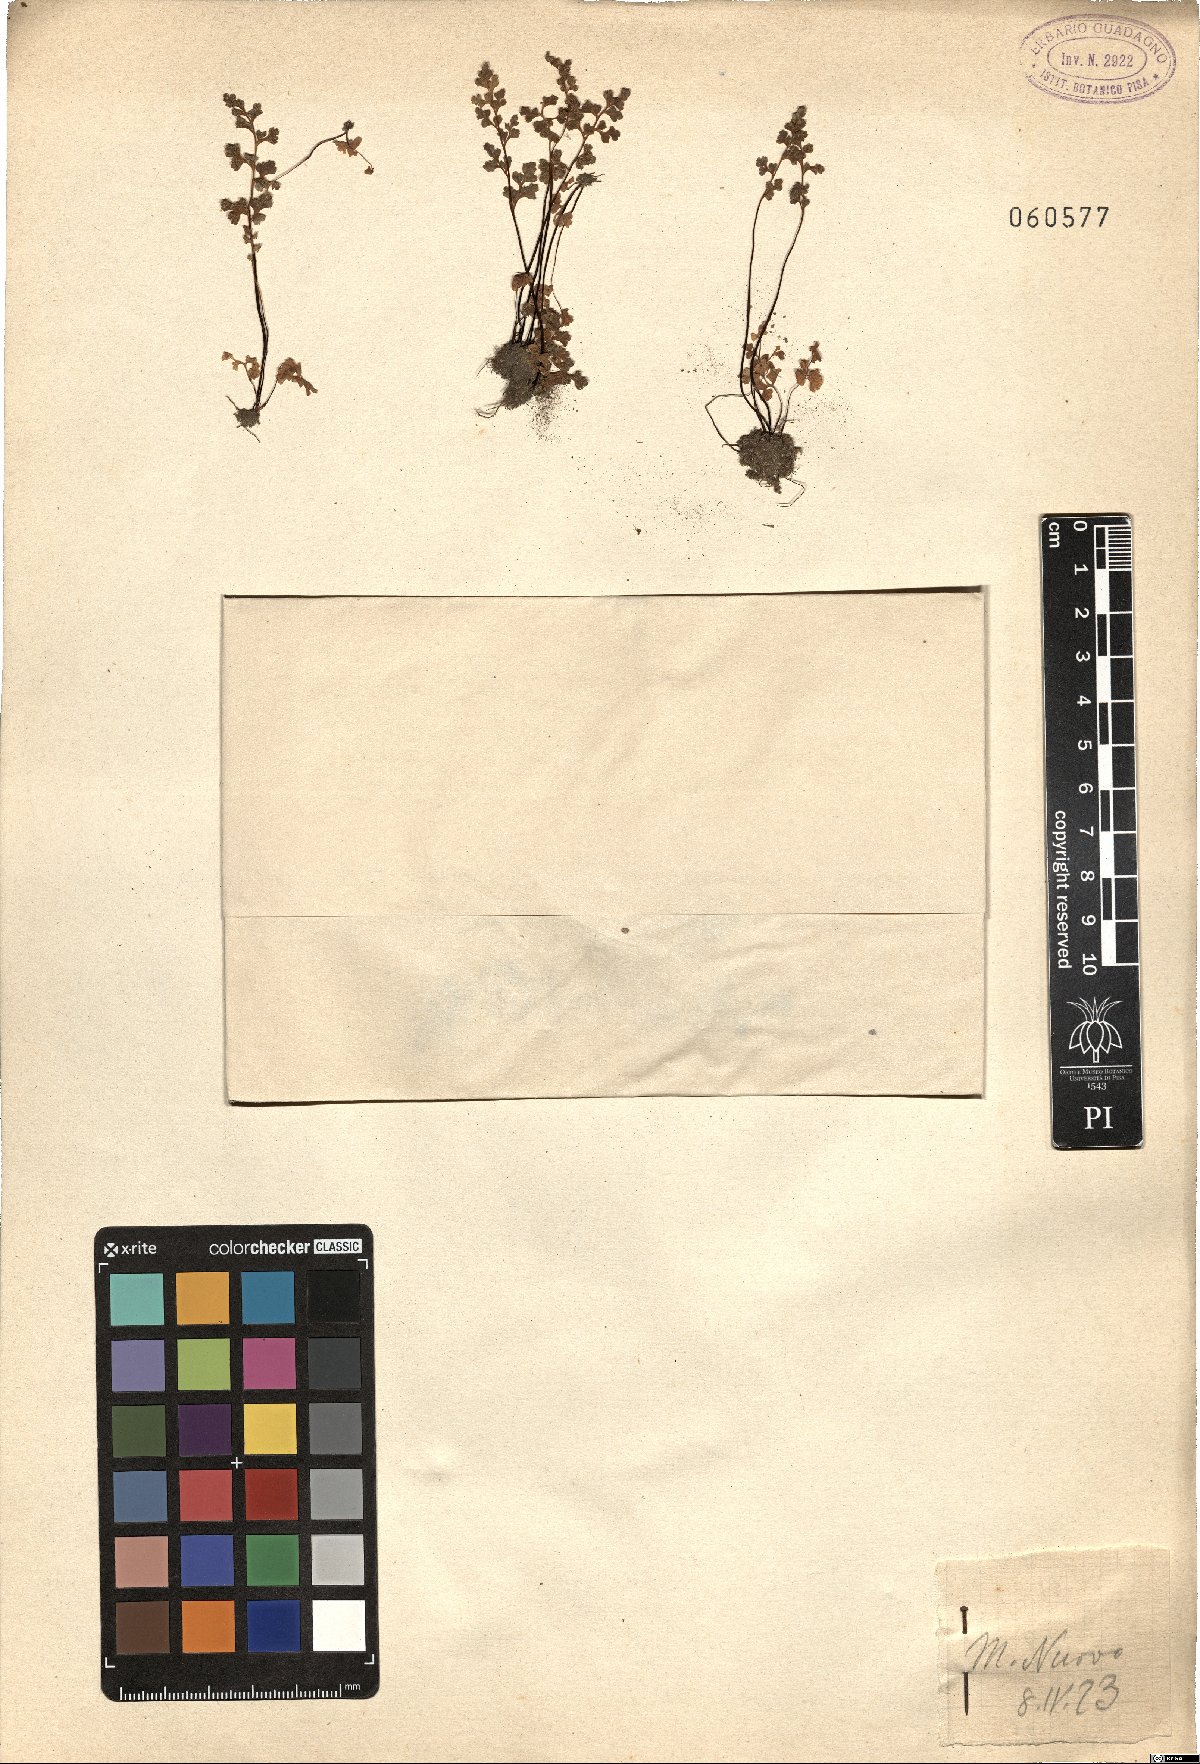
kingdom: Plantae
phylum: Tracheophyta
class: Polypodiopsida
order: Polypodiales
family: Aspleniaceae
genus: Asplenium
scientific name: Asplenium
